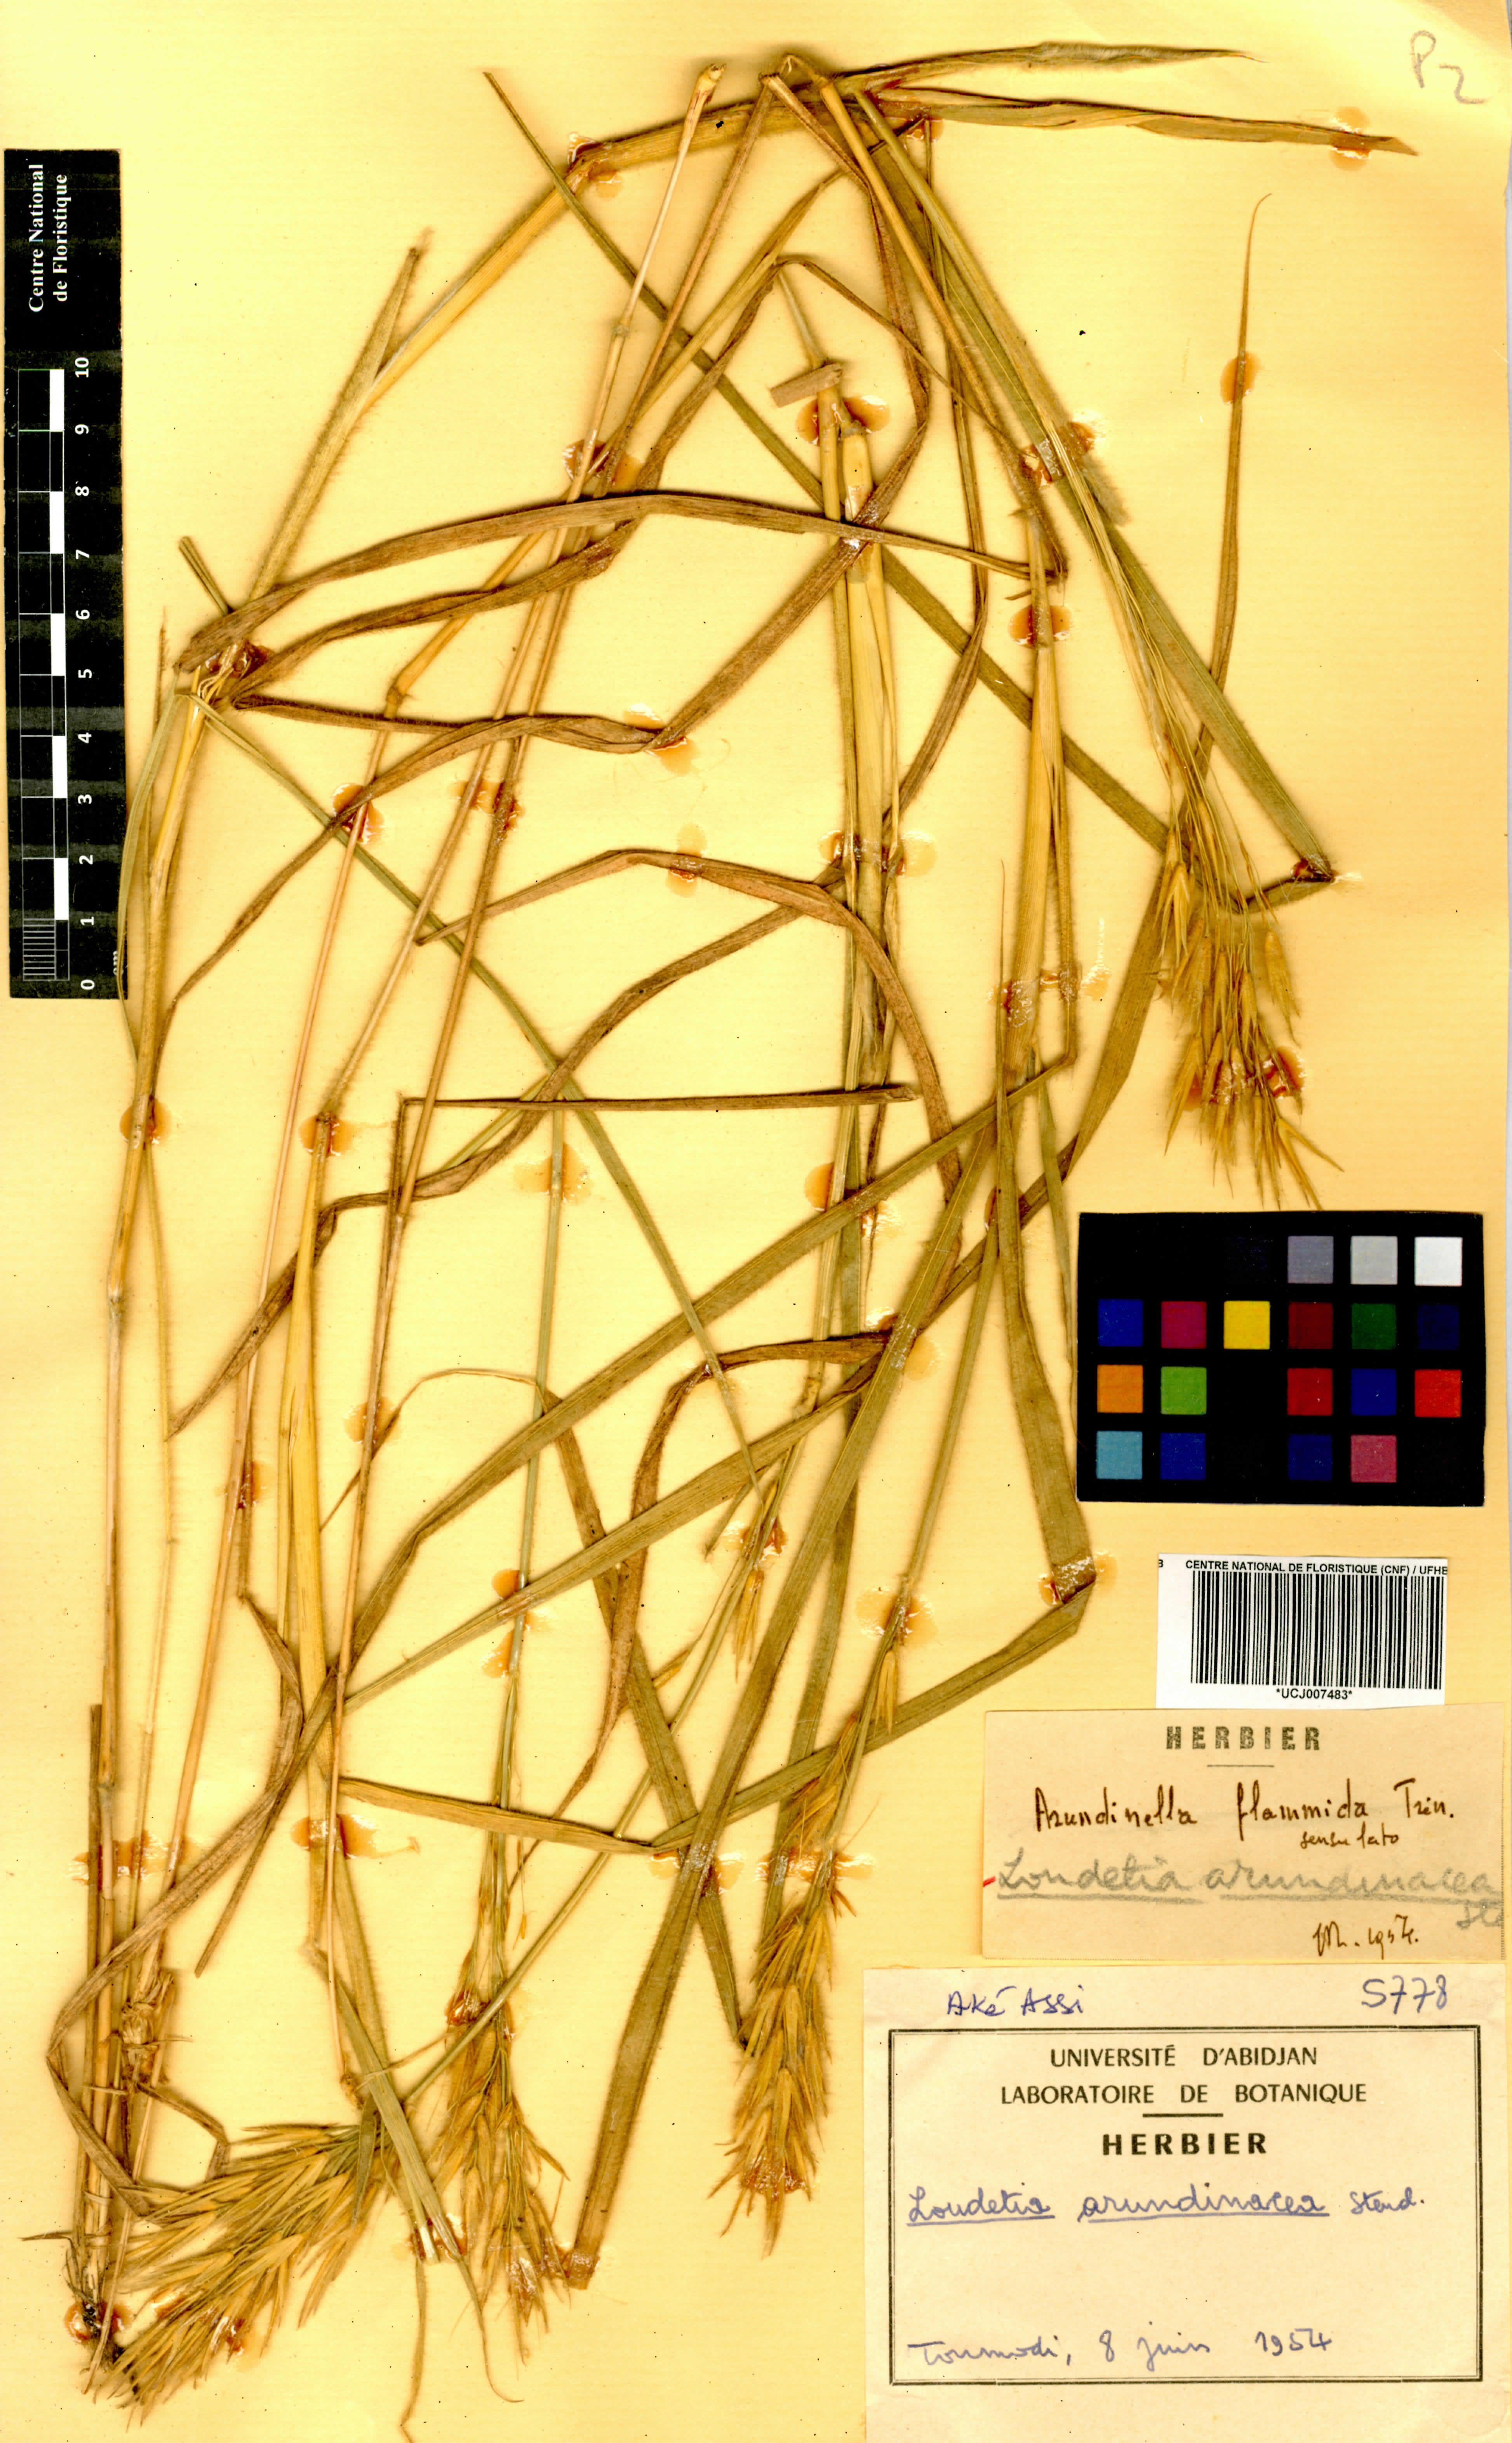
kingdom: Plantae
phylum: Tracheophyta
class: Liliopsida
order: Poales
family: Poaceae
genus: Loudetia
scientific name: Loudetia arundinacea
